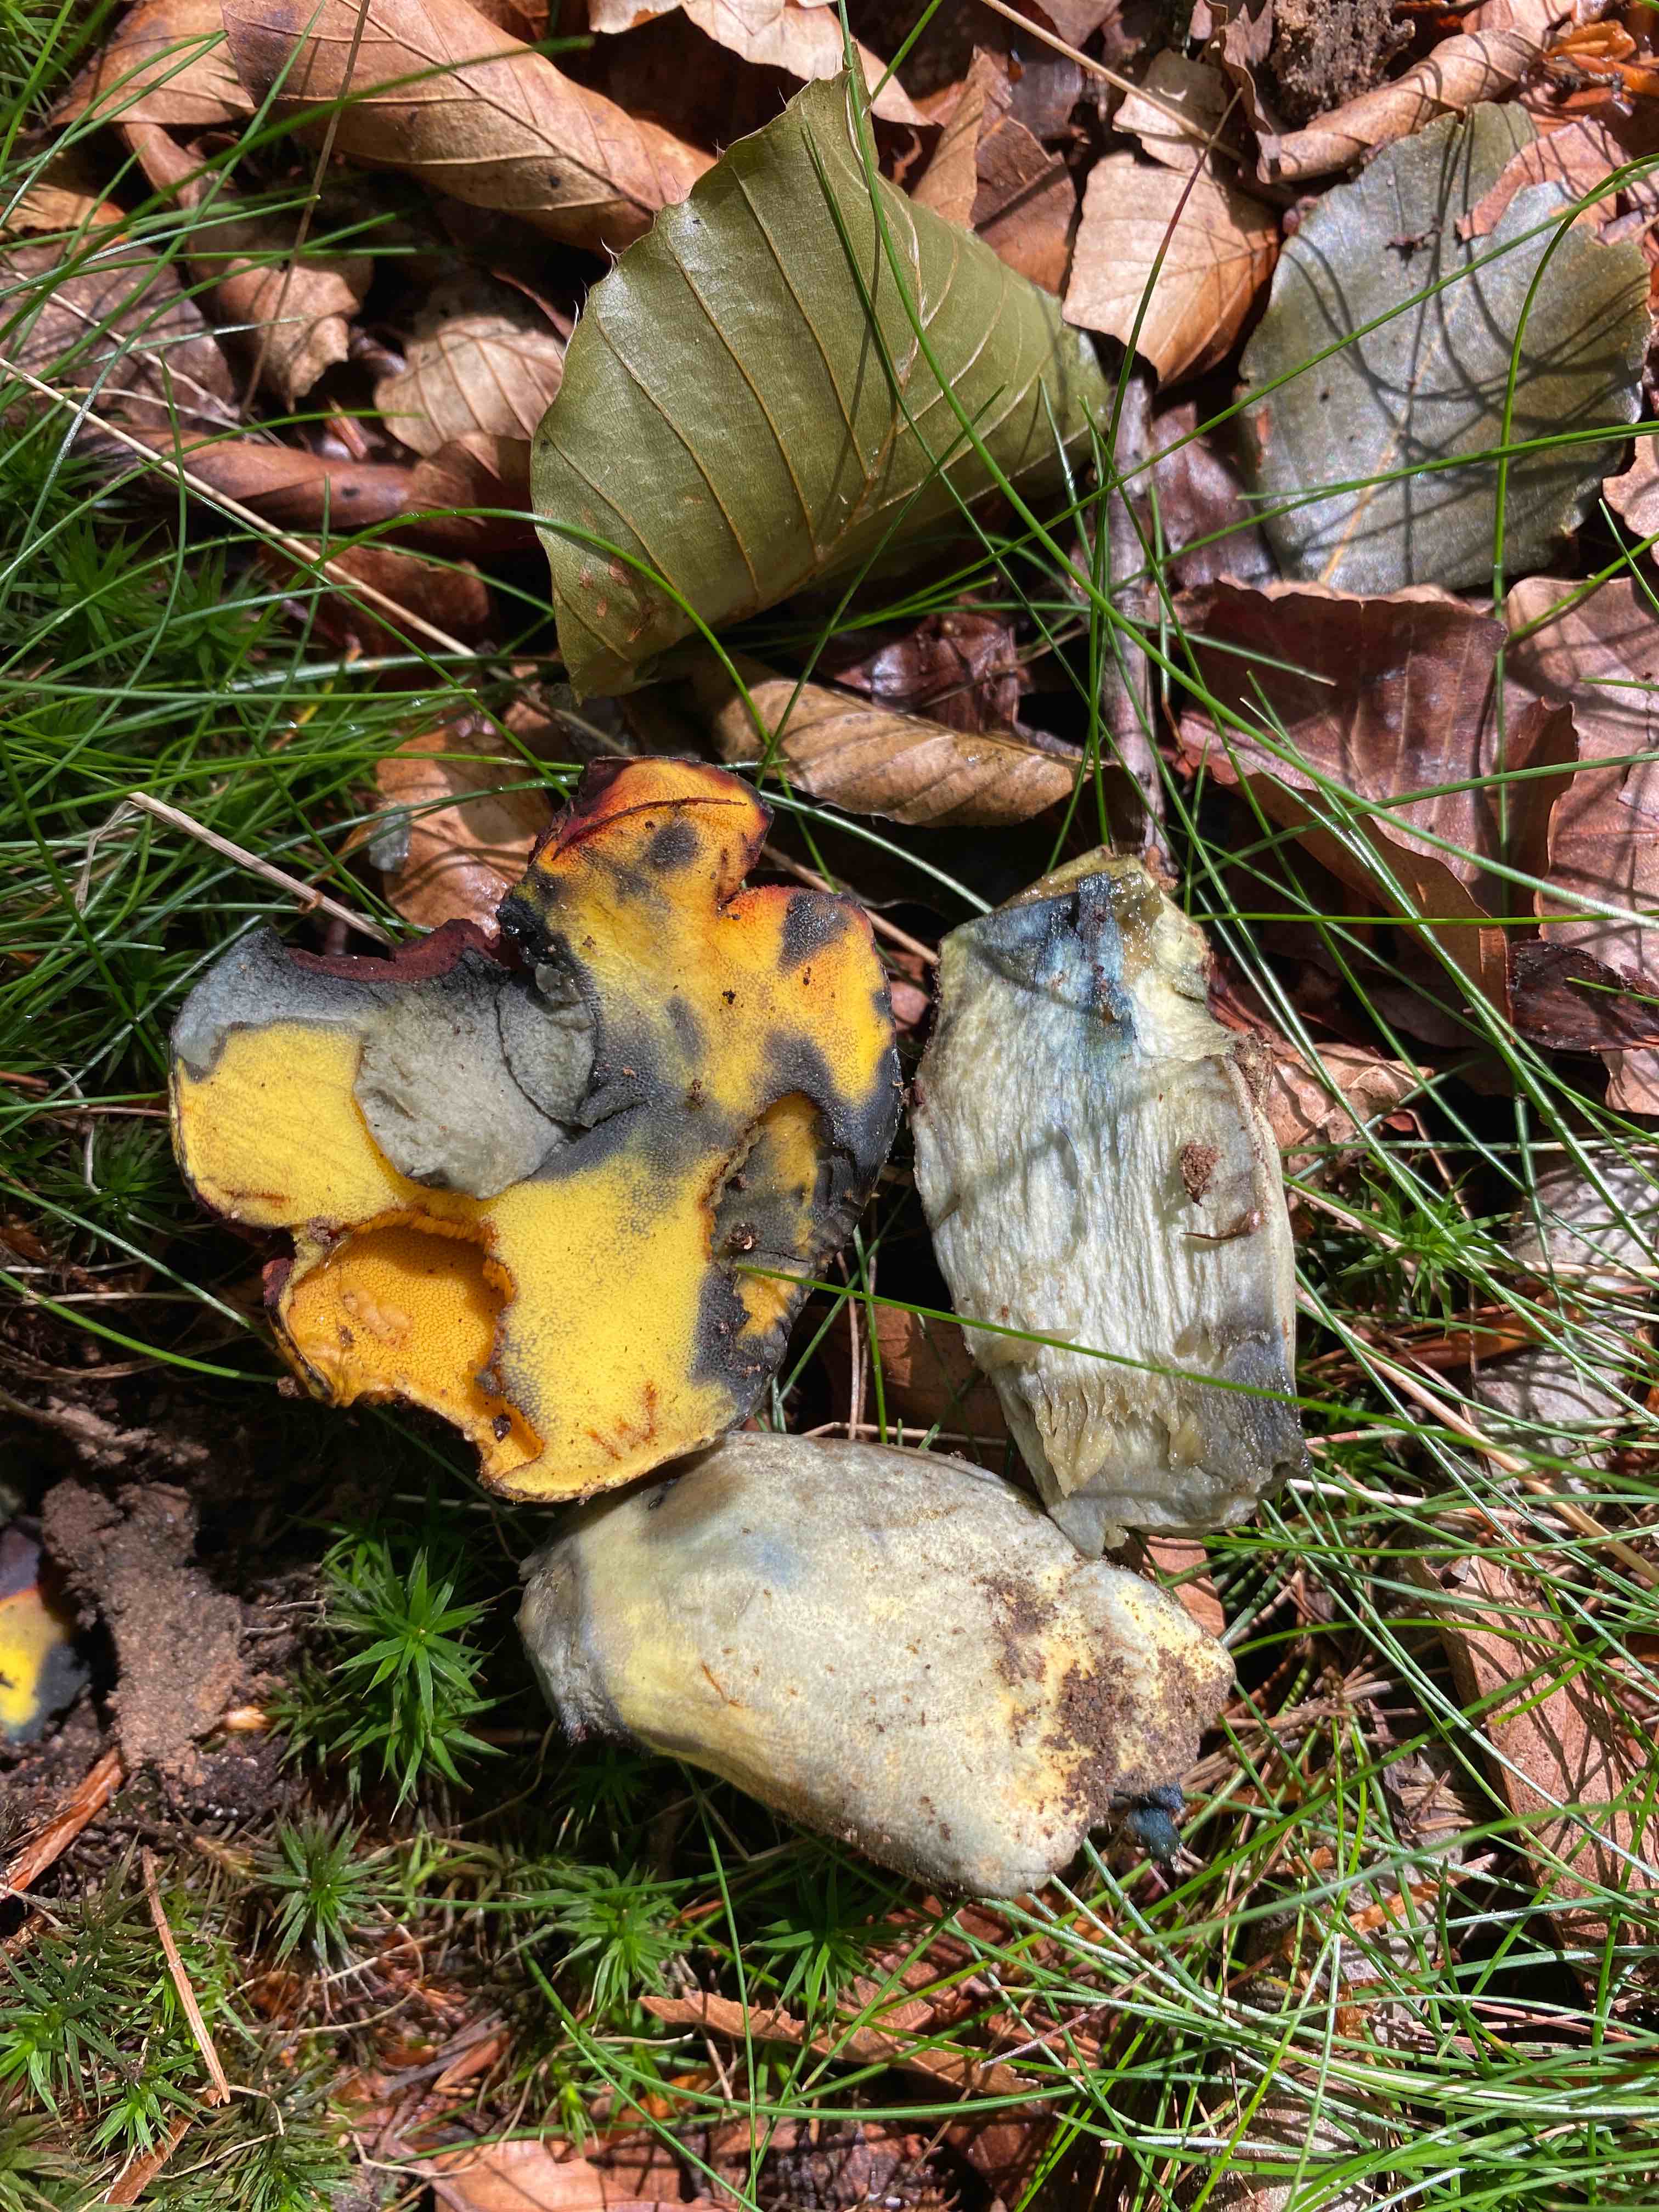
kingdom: Fungi
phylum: Basidiomycota
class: Agaricomycetes
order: Boletales
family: Boletaceae
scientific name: Boletaceae
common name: rørhatfamilien
